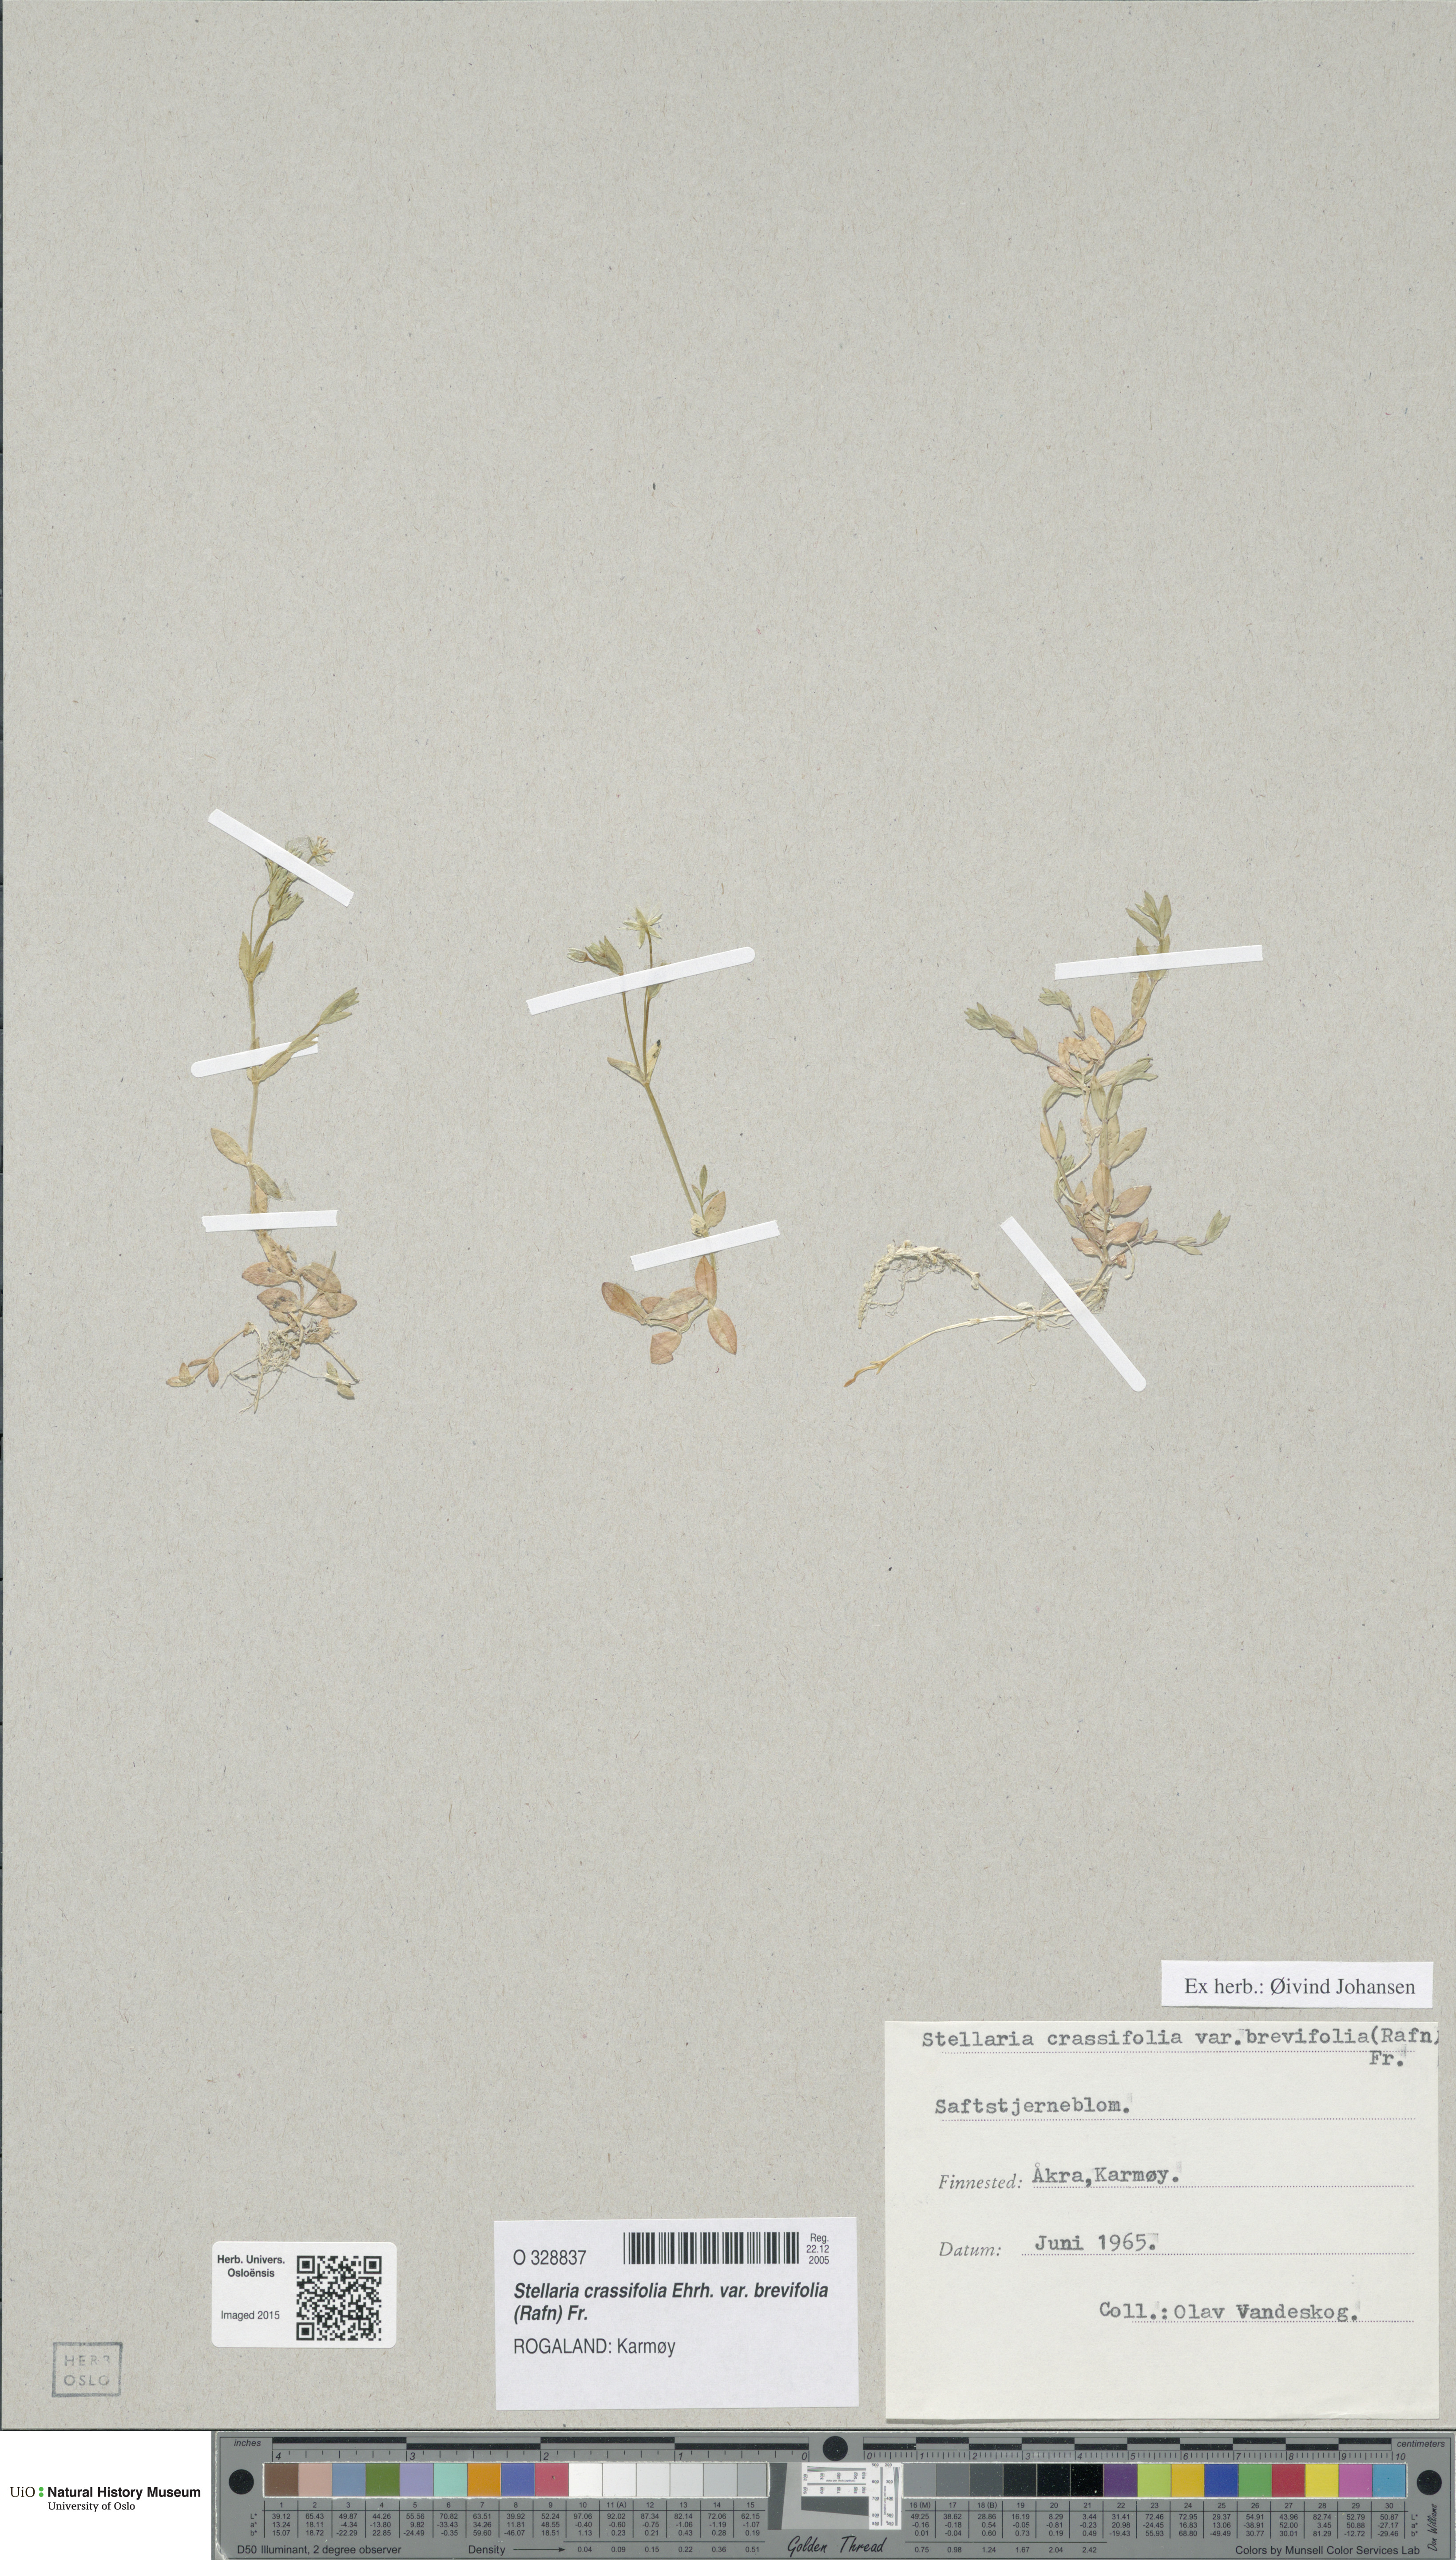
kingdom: Plantae
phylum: Tracheophyta
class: Magnoliopsida
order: Caryophyllales
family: Caryophyllaceae
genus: Stellaria
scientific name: Stellaria crassifolia
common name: Fleshy starwort
